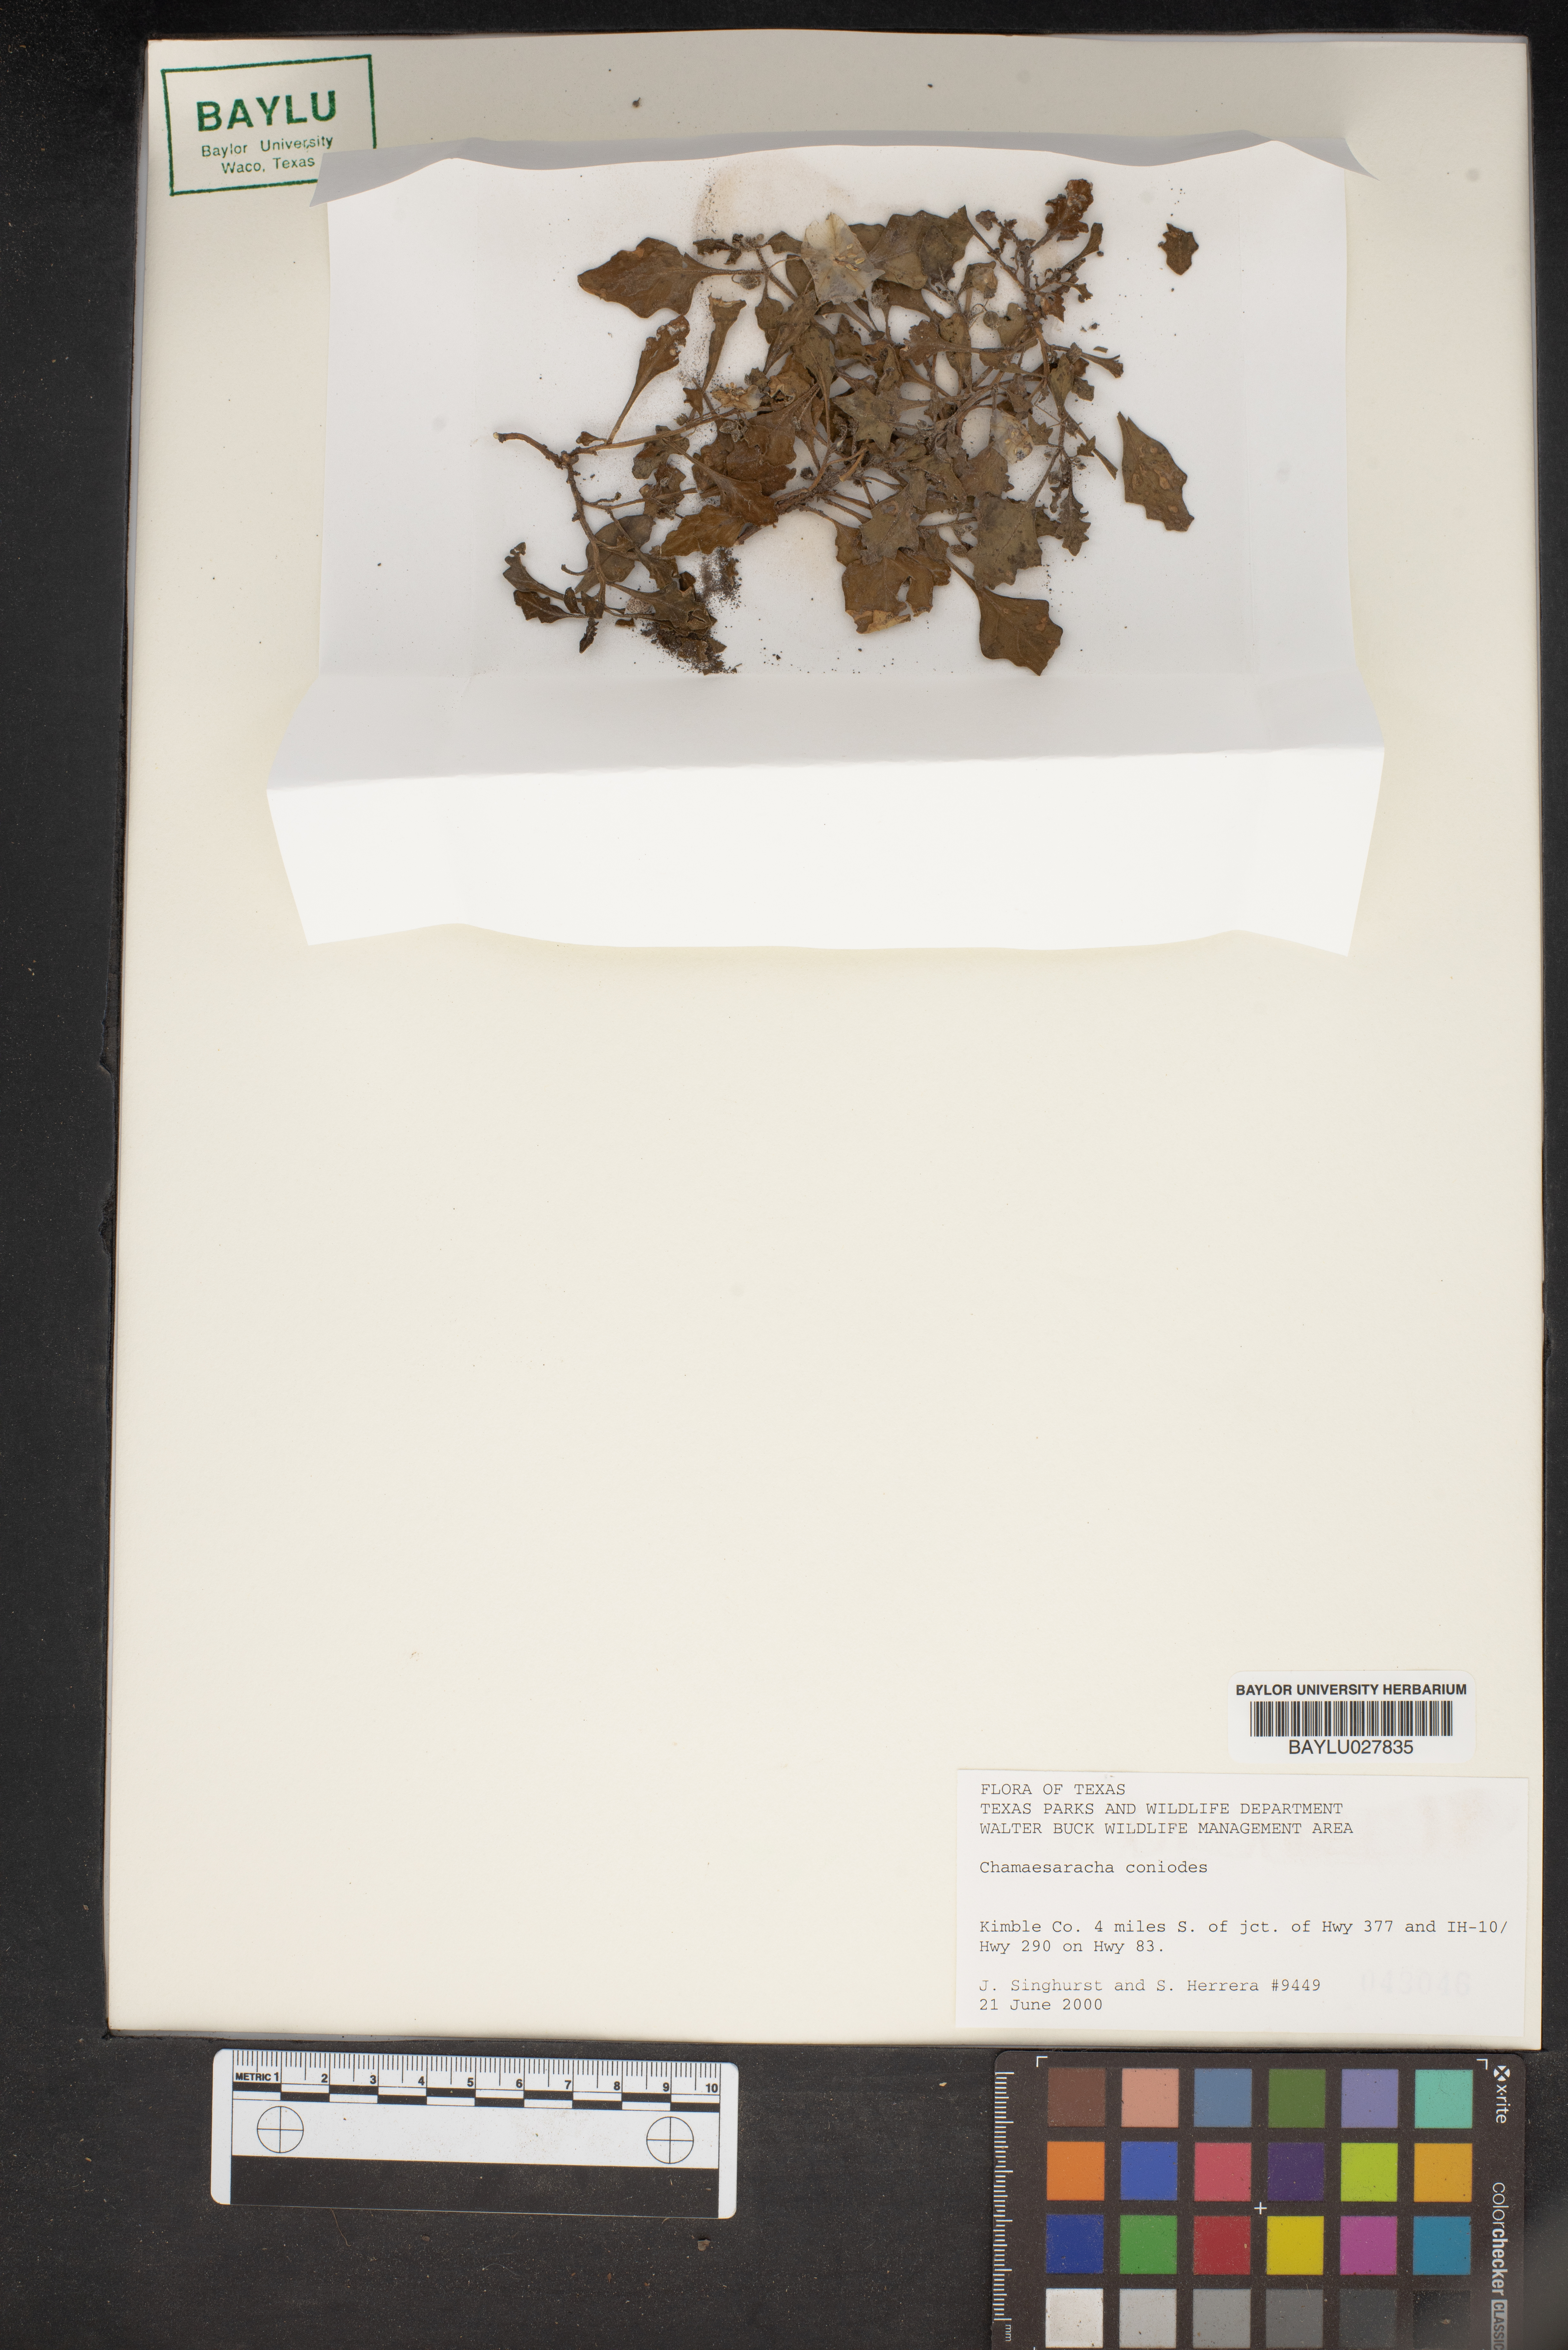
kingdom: Plantae
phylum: Tracheophyta
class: Magnoliopsida
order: Solanales
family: Solanaceae
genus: Chamaesaracha
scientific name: Chamaesaracha coniodes
